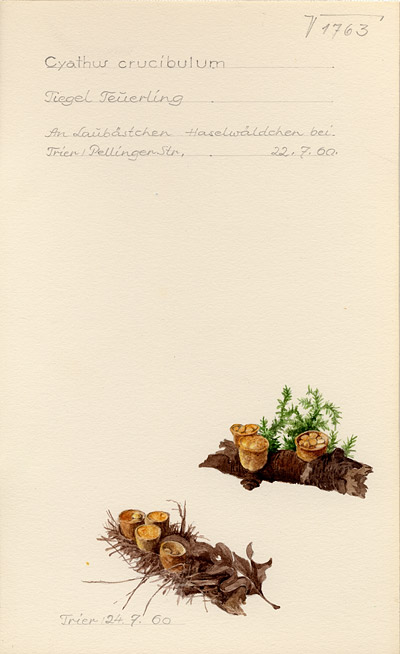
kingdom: Fungi
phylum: Basidiomycota
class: Agaricomycetes
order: Agaricales
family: Nidulariaceae
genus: Crucibulum
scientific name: Crucibulum laeve
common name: Common bird's nest
